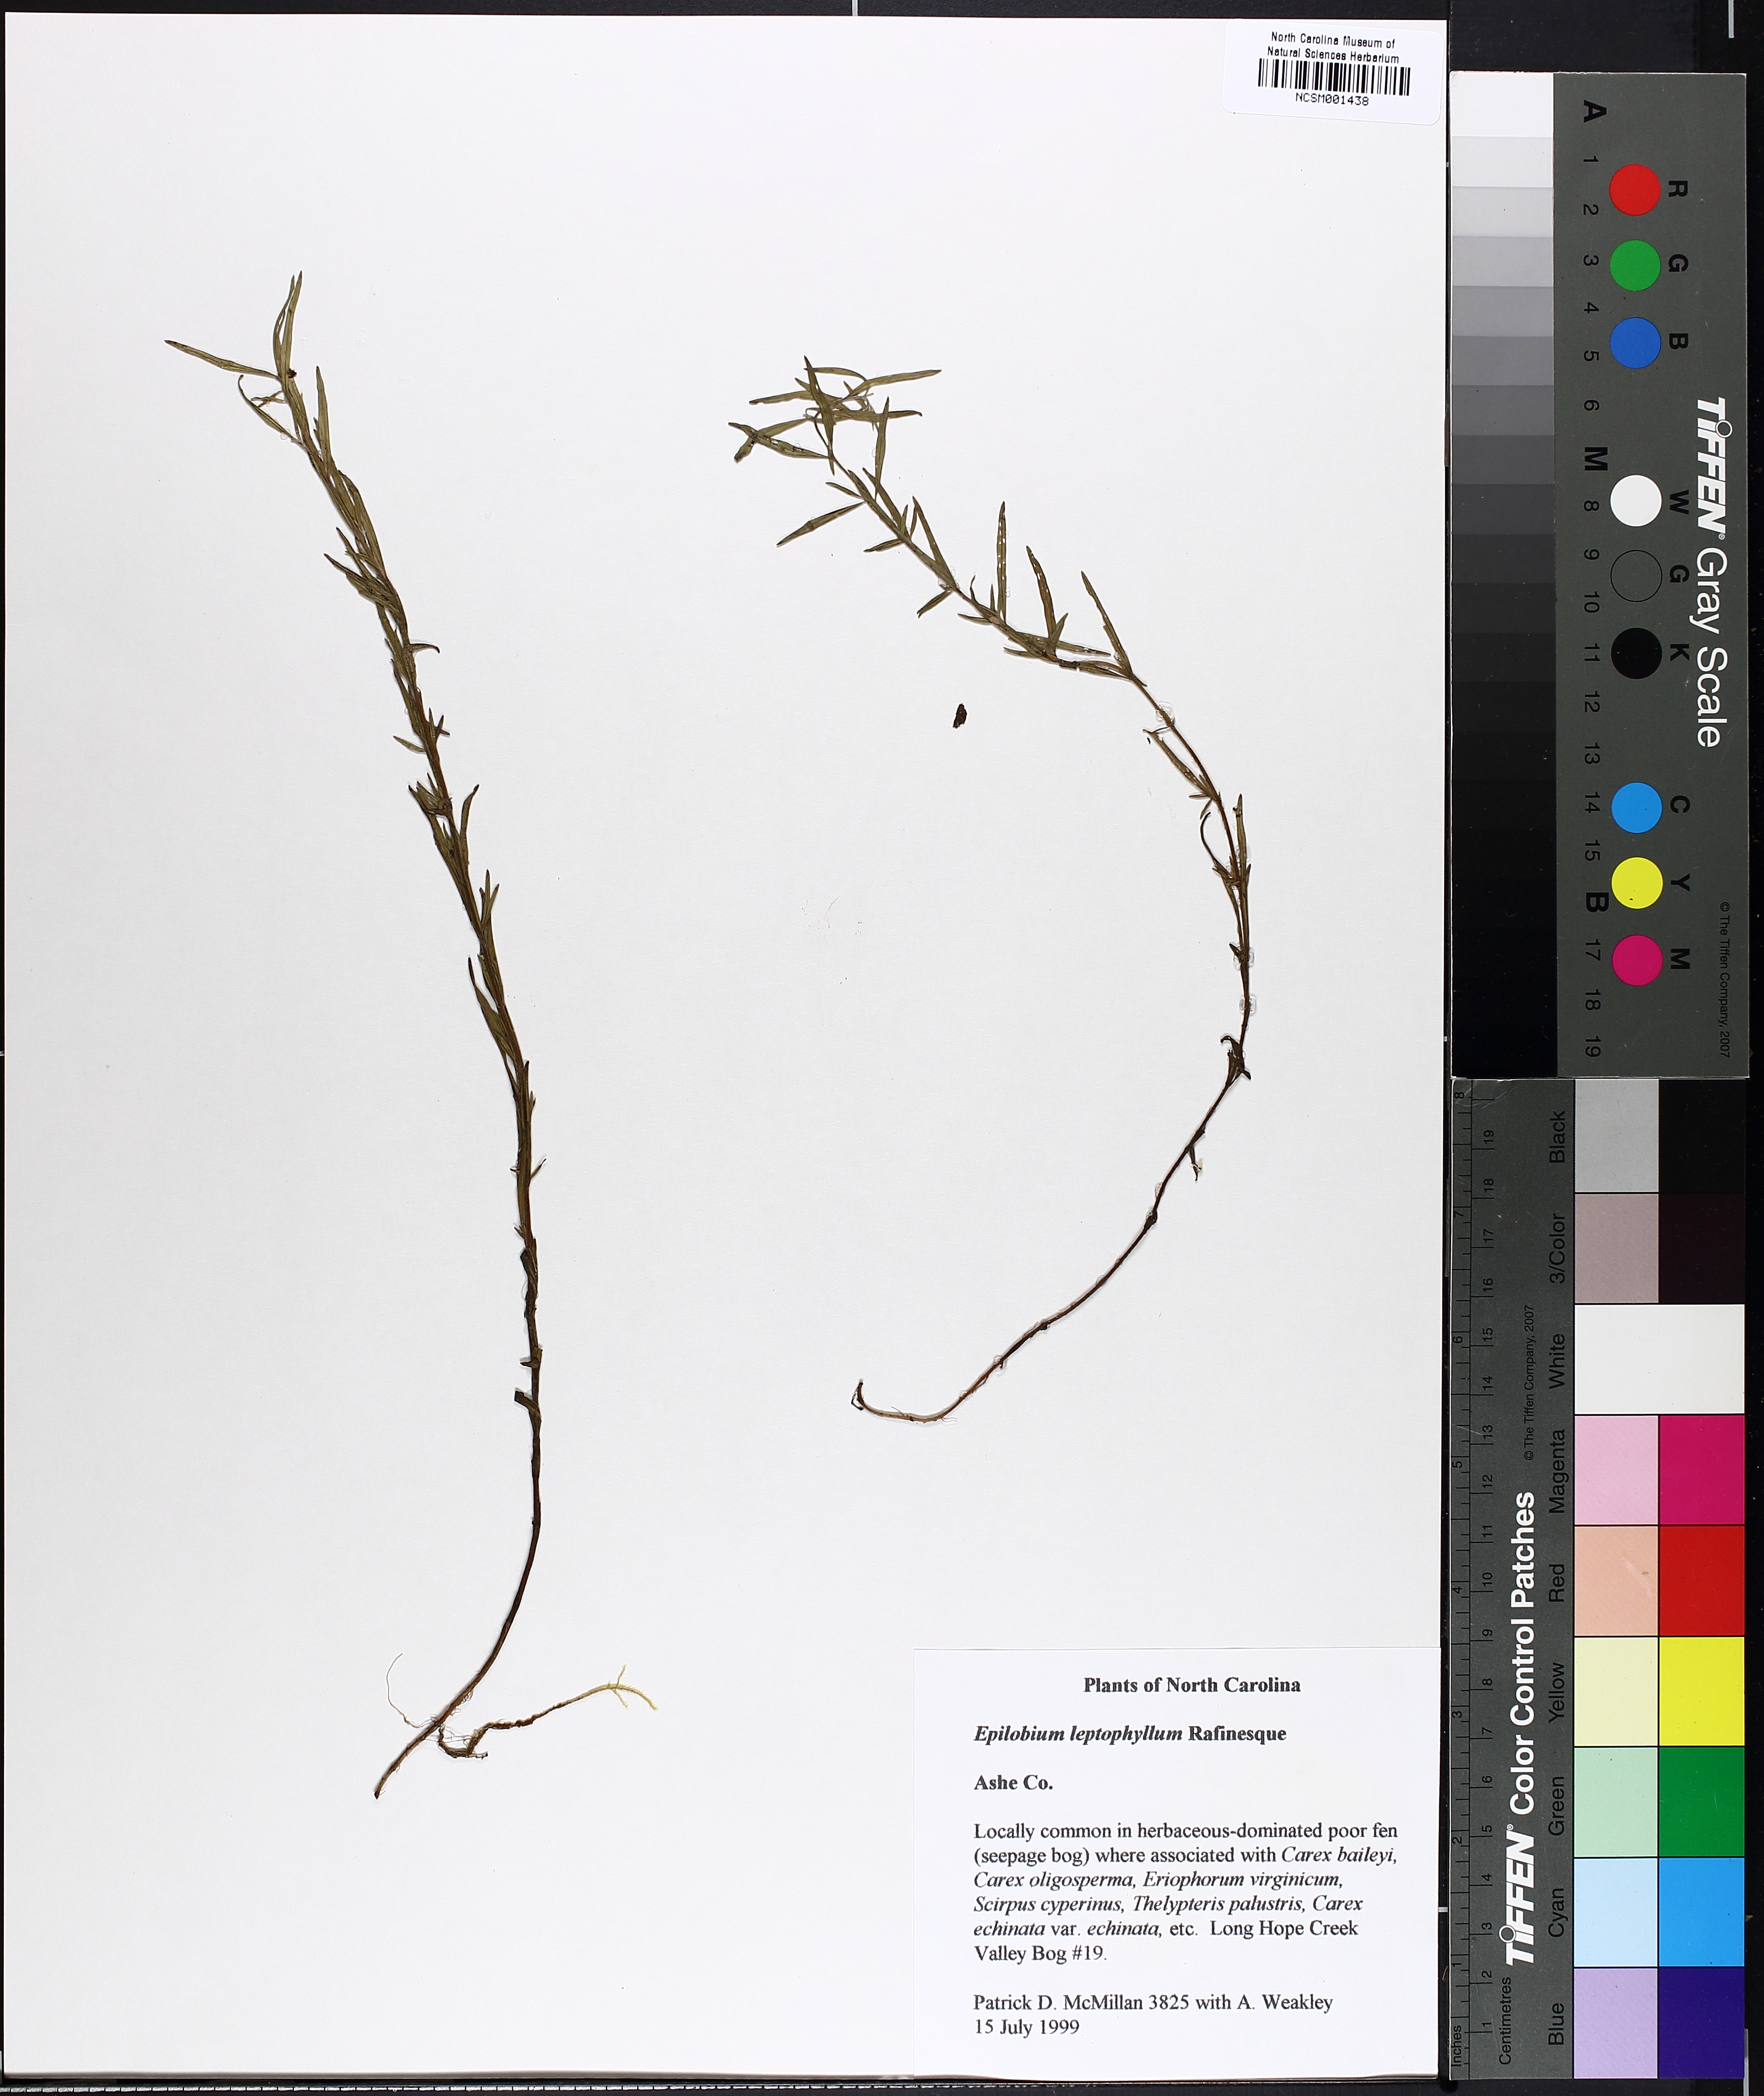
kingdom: Plantae
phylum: Tracheophyta
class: Magnoliopsida
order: Myrtales
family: Onagraceae
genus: Epilobium
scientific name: Epilobium leptophyllum
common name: Bog willowherb
